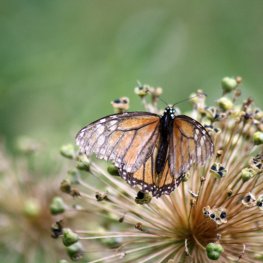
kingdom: Animalia
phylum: Arthropoda
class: Insecta
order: Lepidoptera
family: Nymphalidae
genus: Danaus
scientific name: Danaus plexippus
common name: Monarch
